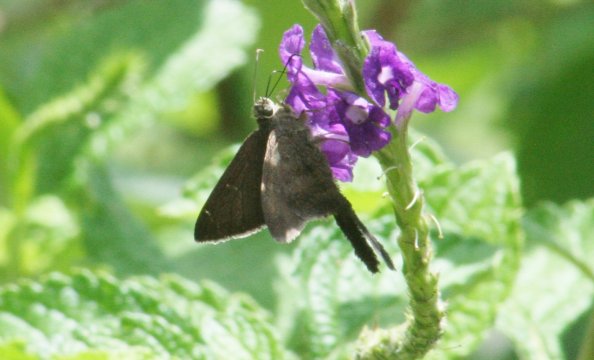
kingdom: Animalia
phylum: Arthropoda
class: Insecta
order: Lepidoptera
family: Hesperiidae
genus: Urbanus
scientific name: Urbanus procne
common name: Brown Longtail
